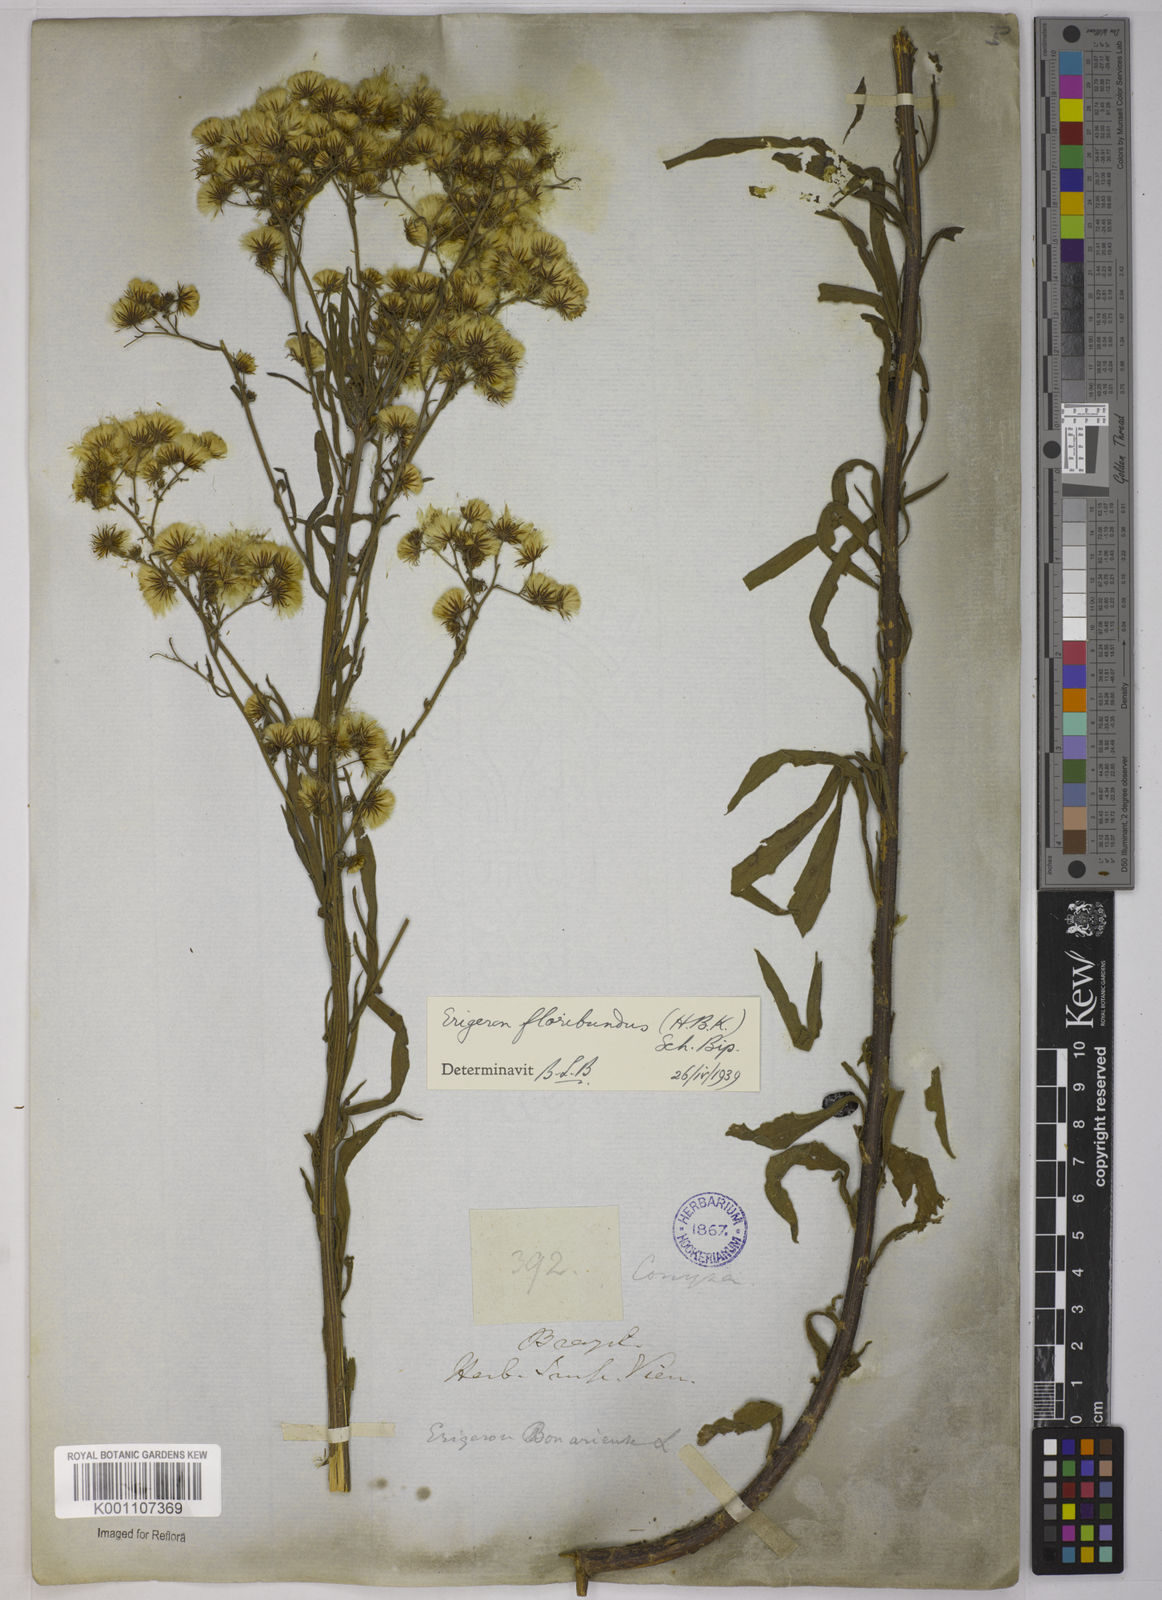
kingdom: Plantae
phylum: Tracheophyta
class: Magnoliopsida
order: Asterales
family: Asteraceae
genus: Erigeron
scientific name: Erigeron bonariensis
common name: Argentine fleabane
